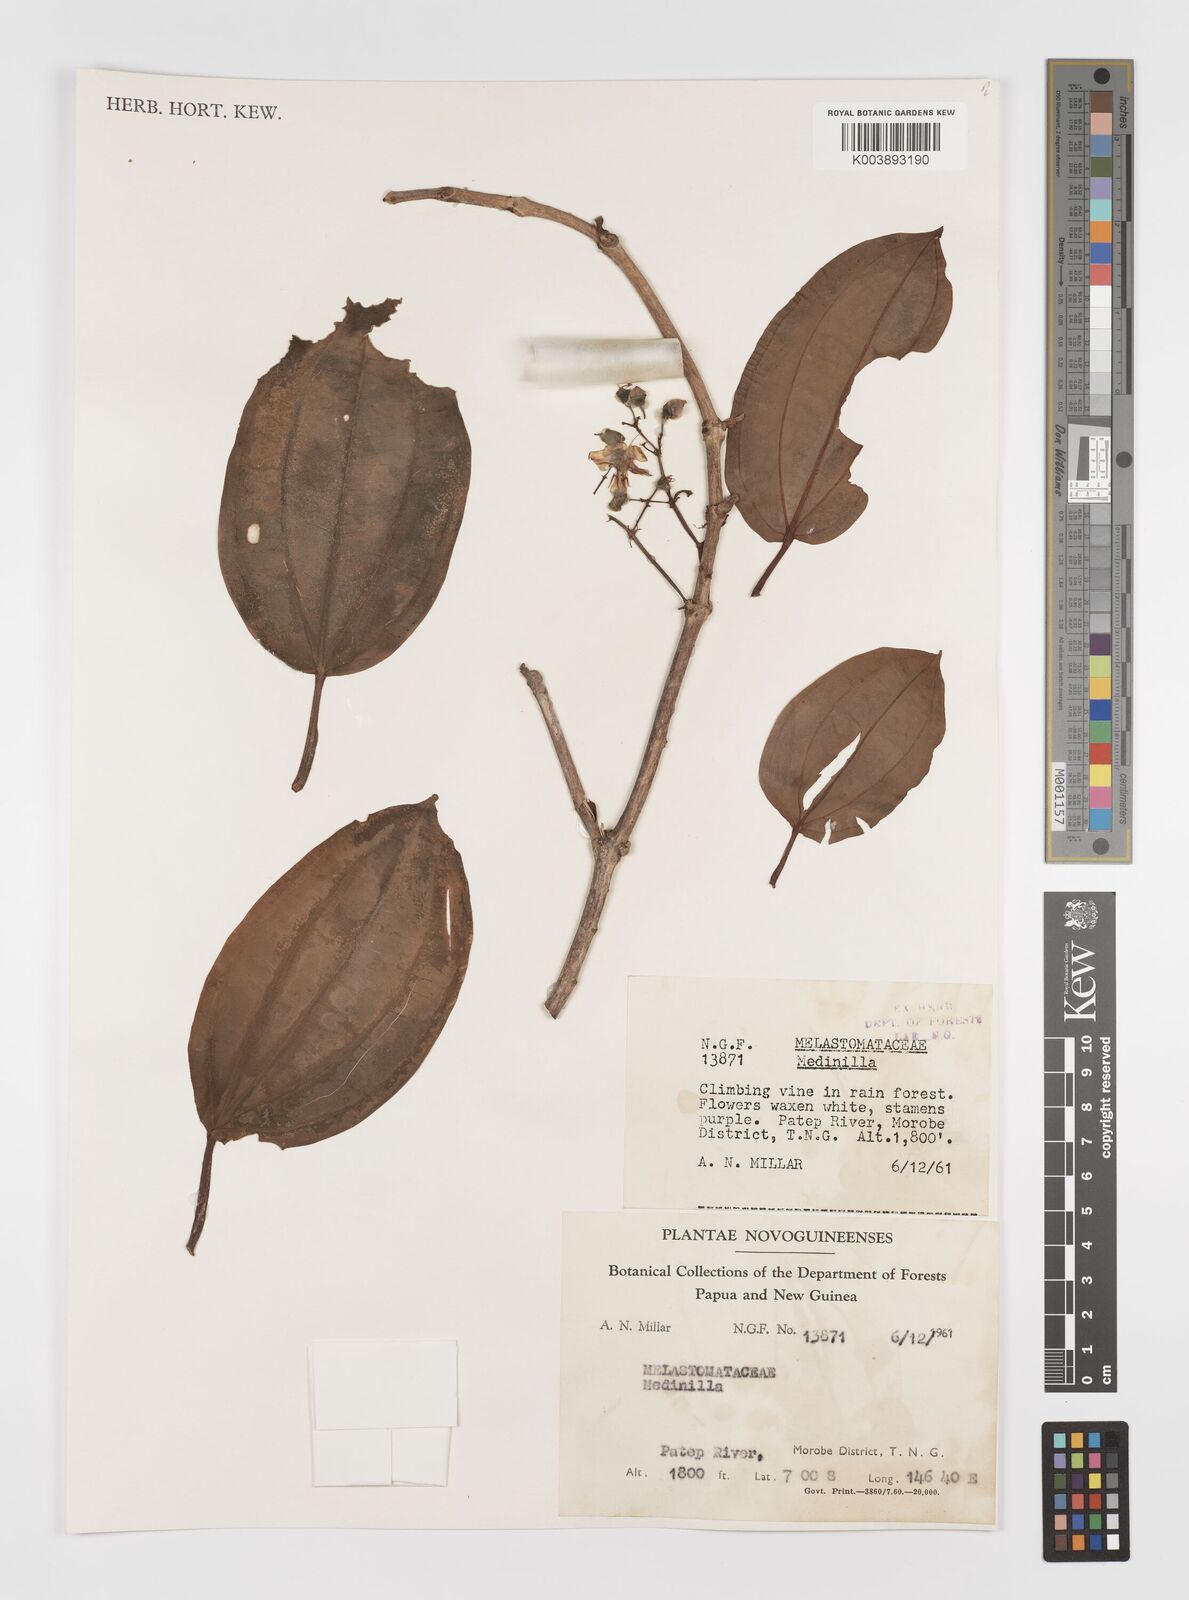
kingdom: Plantae
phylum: Tracheophyta
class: Magnoliopsida
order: Myrtales
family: Melastomataceae
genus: Medinilla
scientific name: Medinilla
